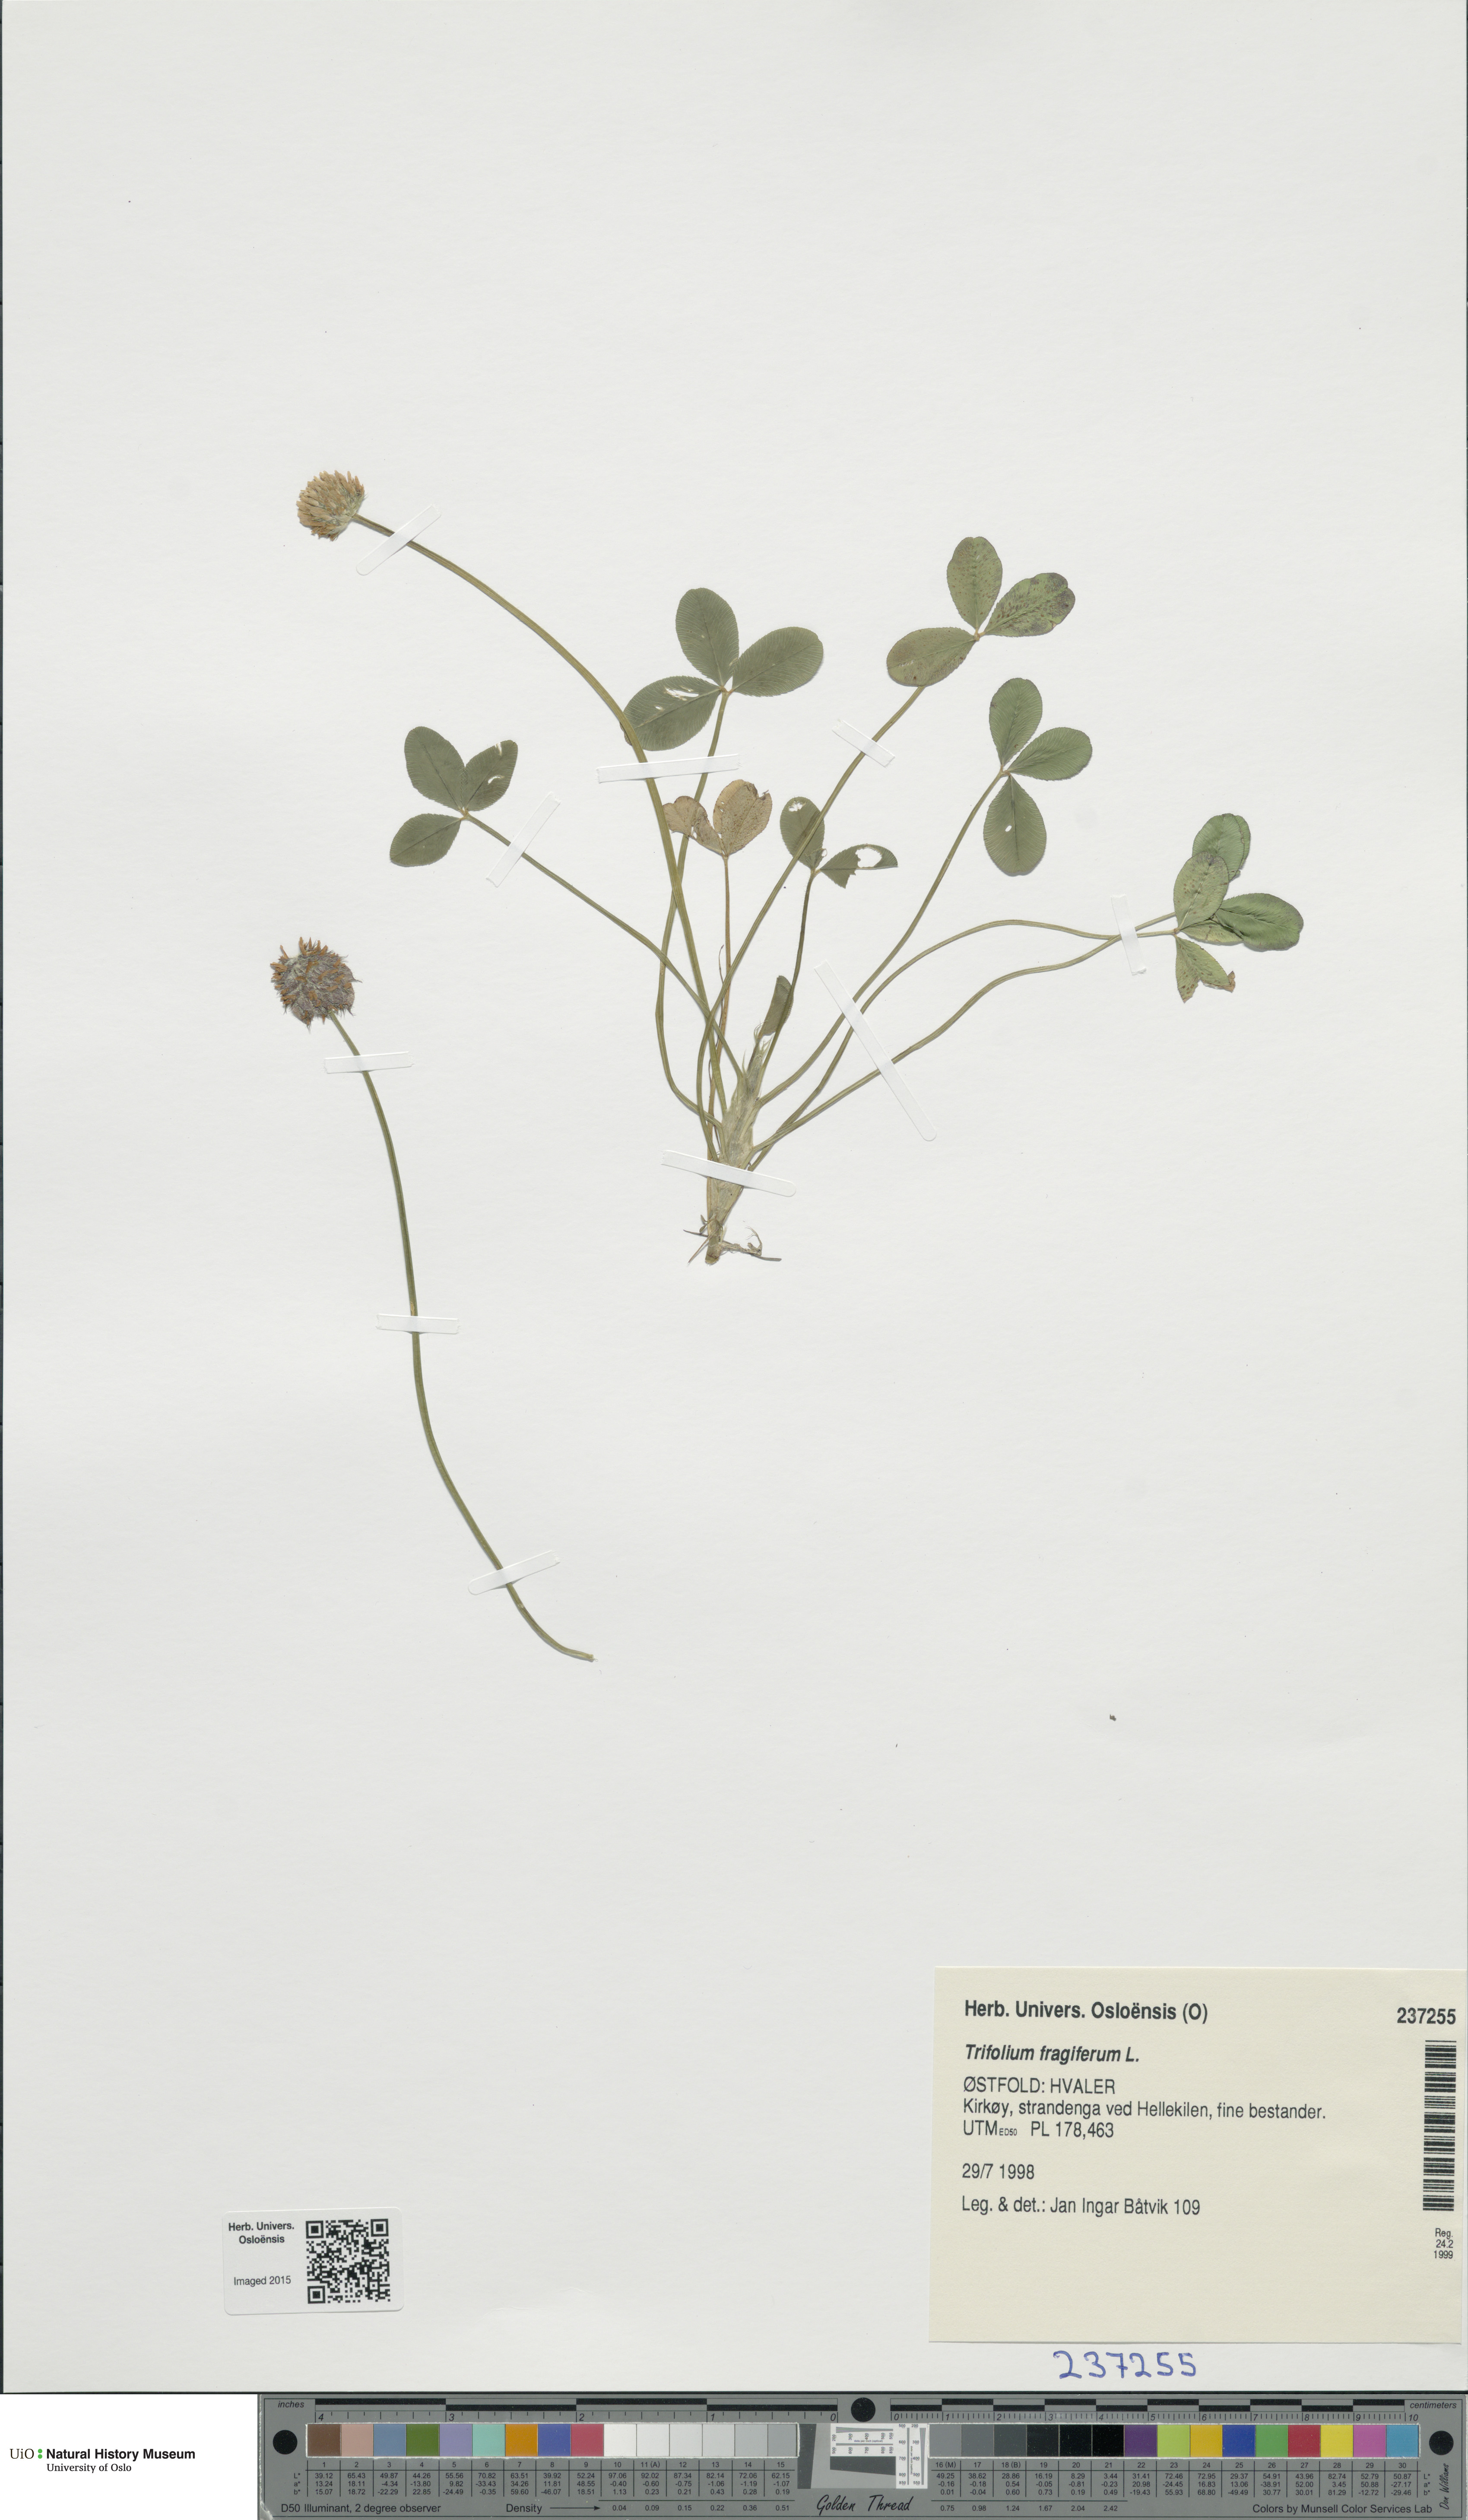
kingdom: Plantae
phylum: Tracheophyta
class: Magnoliopsida
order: Fabales
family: Fabaceae
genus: Trifolium
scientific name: Trifolium fragiferum
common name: Strawberry clover
